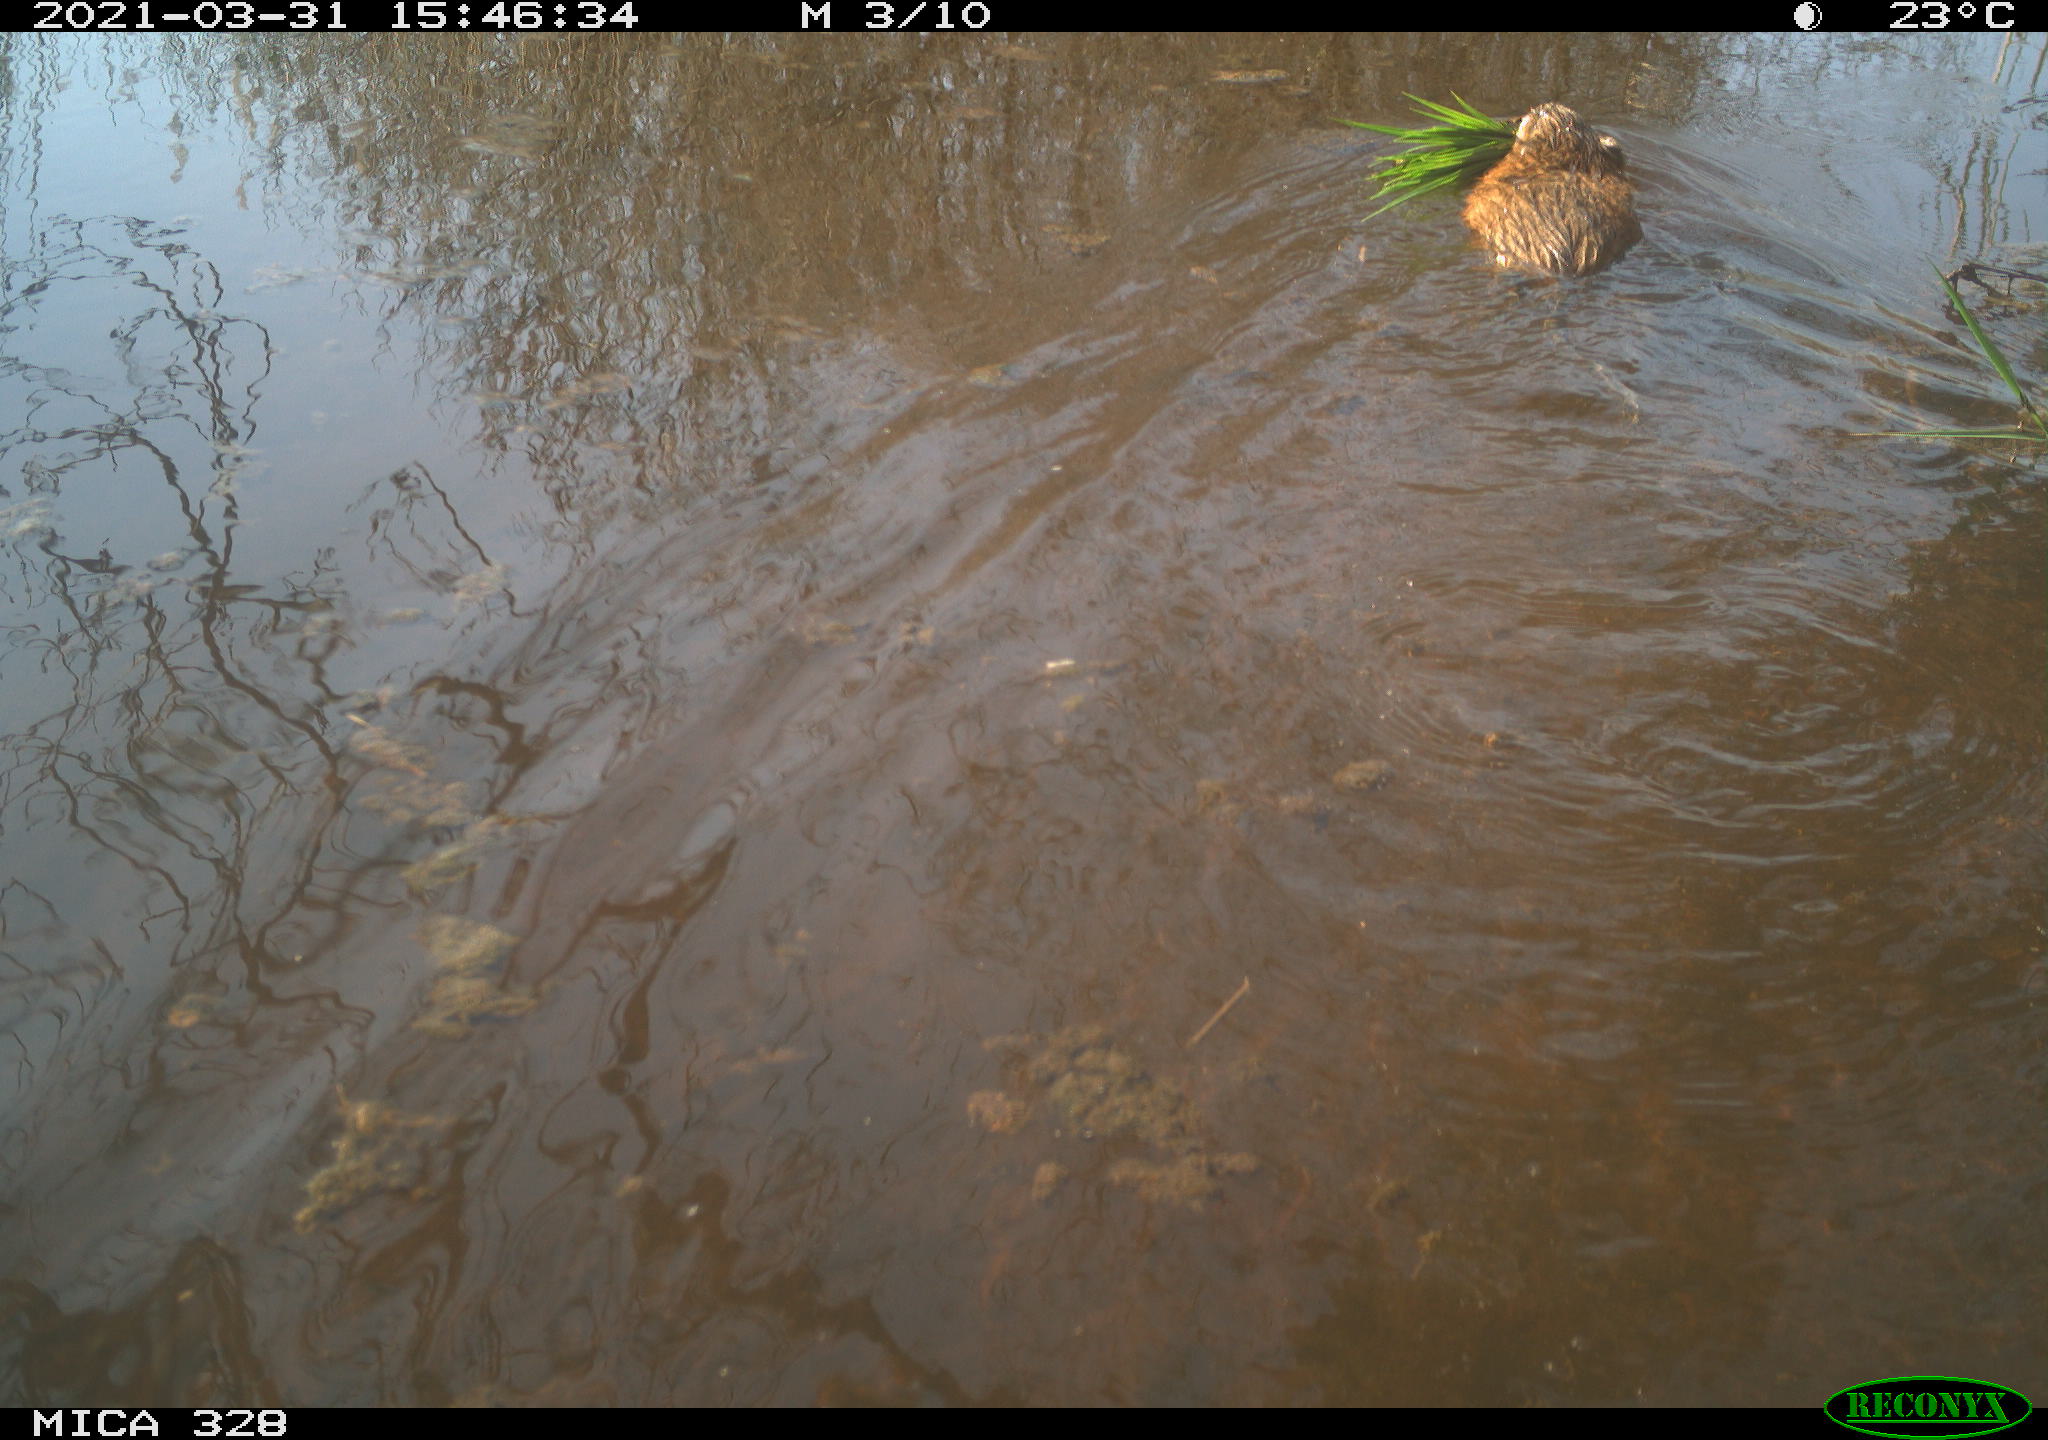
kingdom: Animalia
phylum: Chordata
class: Mammalia
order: Rodentia
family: Cricetidae
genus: Ondatra
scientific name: Ondatra zibethicus
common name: Muskrat
